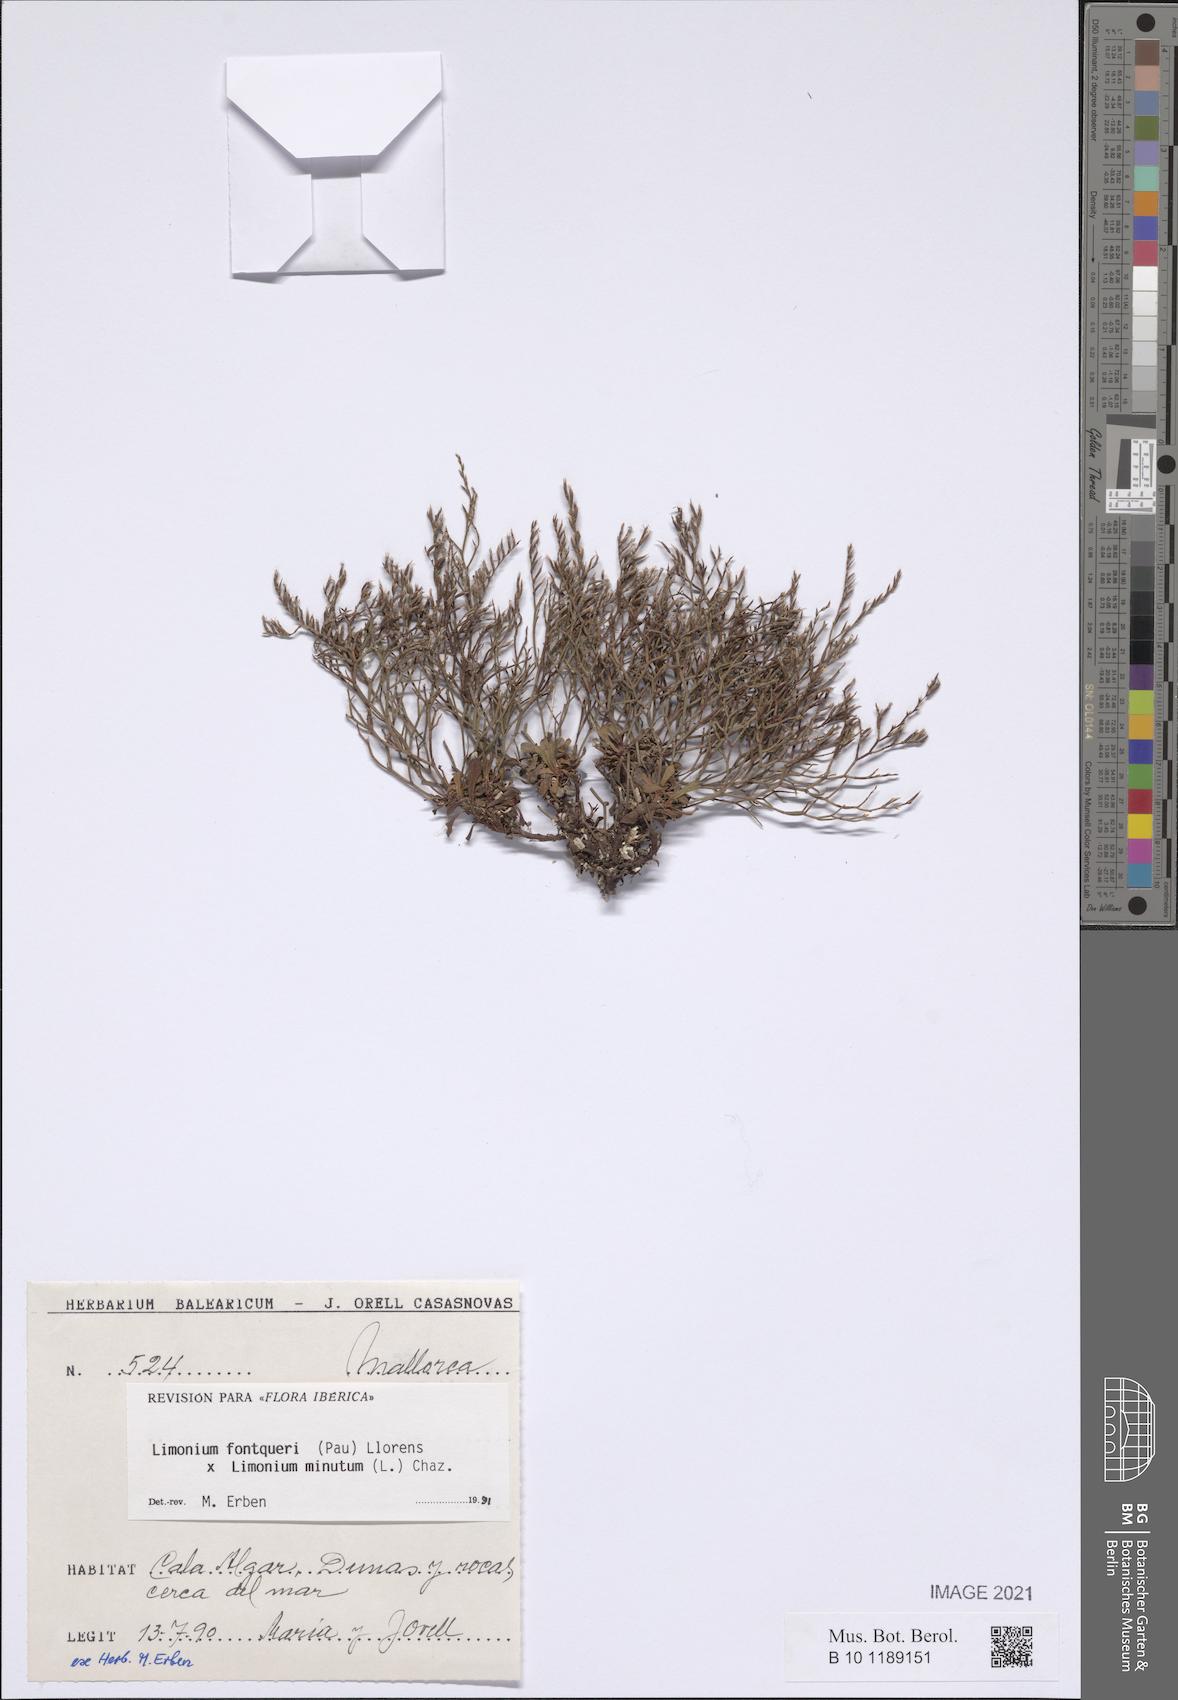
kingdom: Plantae
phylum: Tracheophyta
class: Magnoliopsida
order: Caryophyllales
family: Plumbaginaceae
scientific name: Plumbaginaceae
